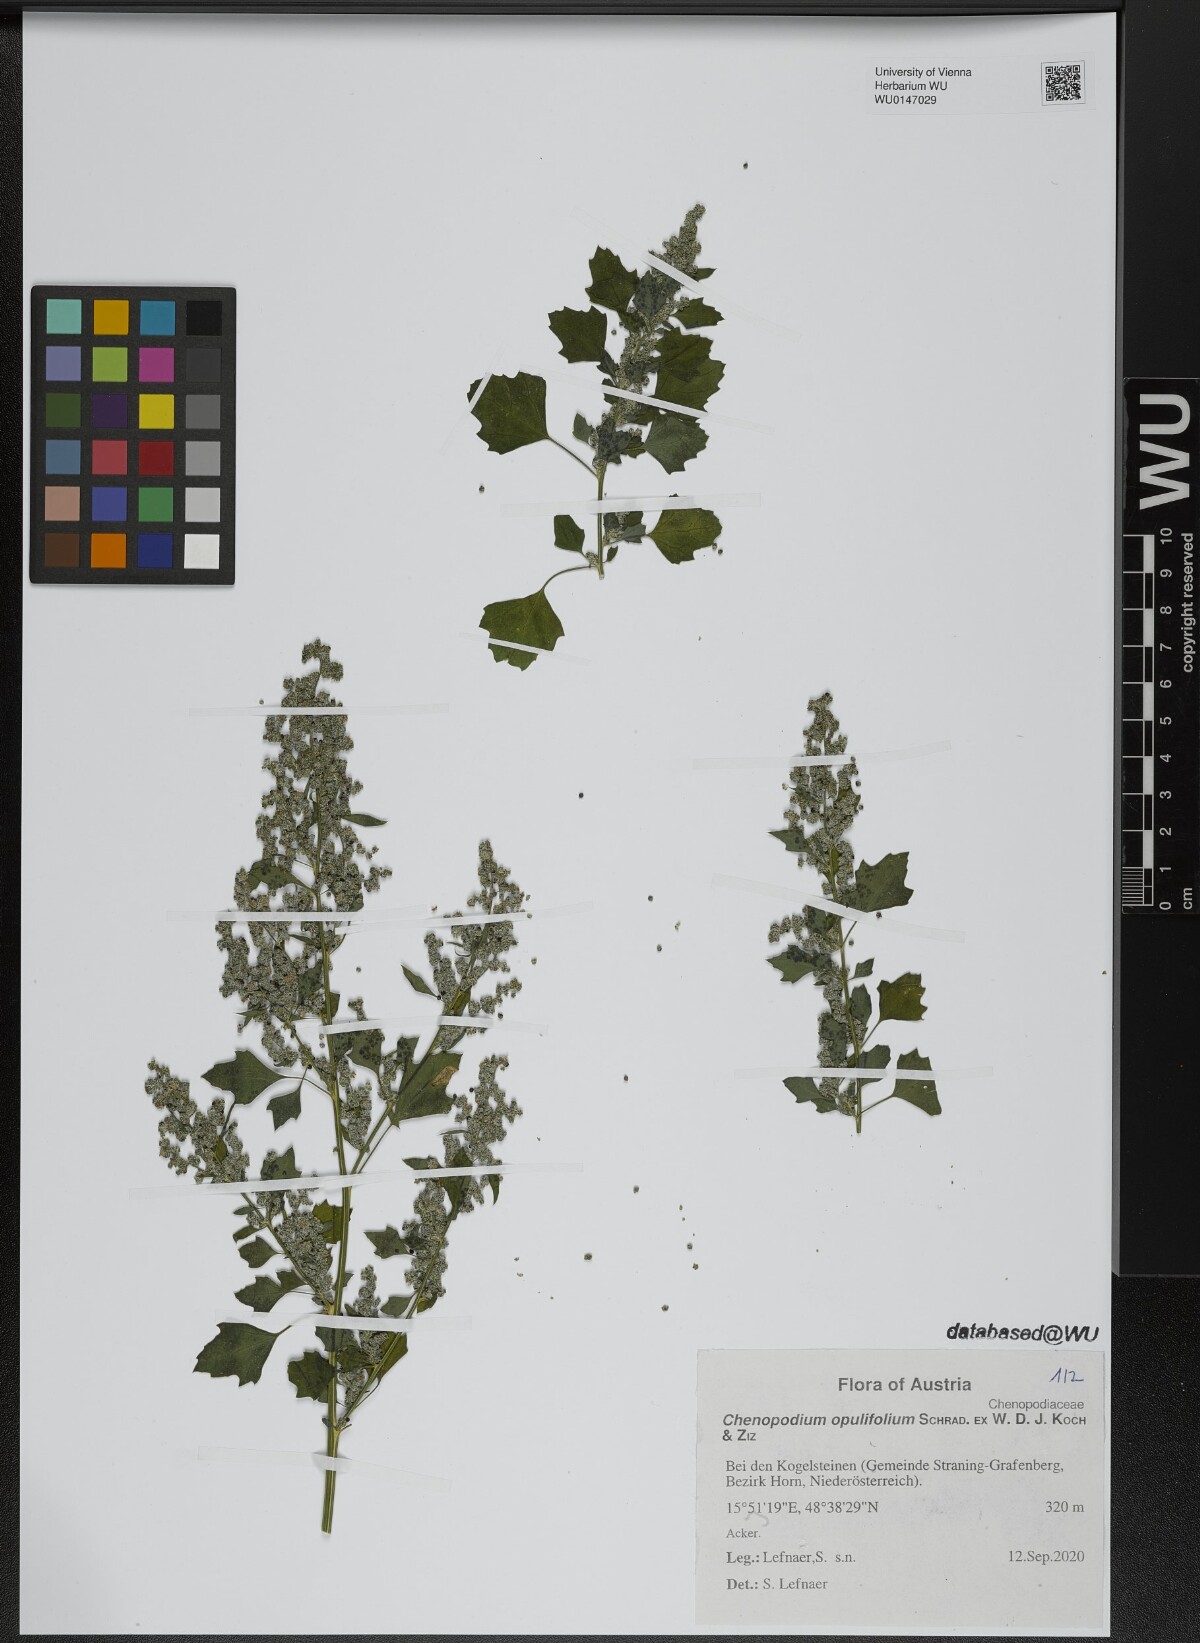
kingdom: Plantae
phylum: Tracheophyta
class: Magnoliopsida
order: Caryophyllales
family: Amaranthaceae
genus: Chenopodium
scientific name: Chenopodium opulifolium
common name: Grey goosefoot
